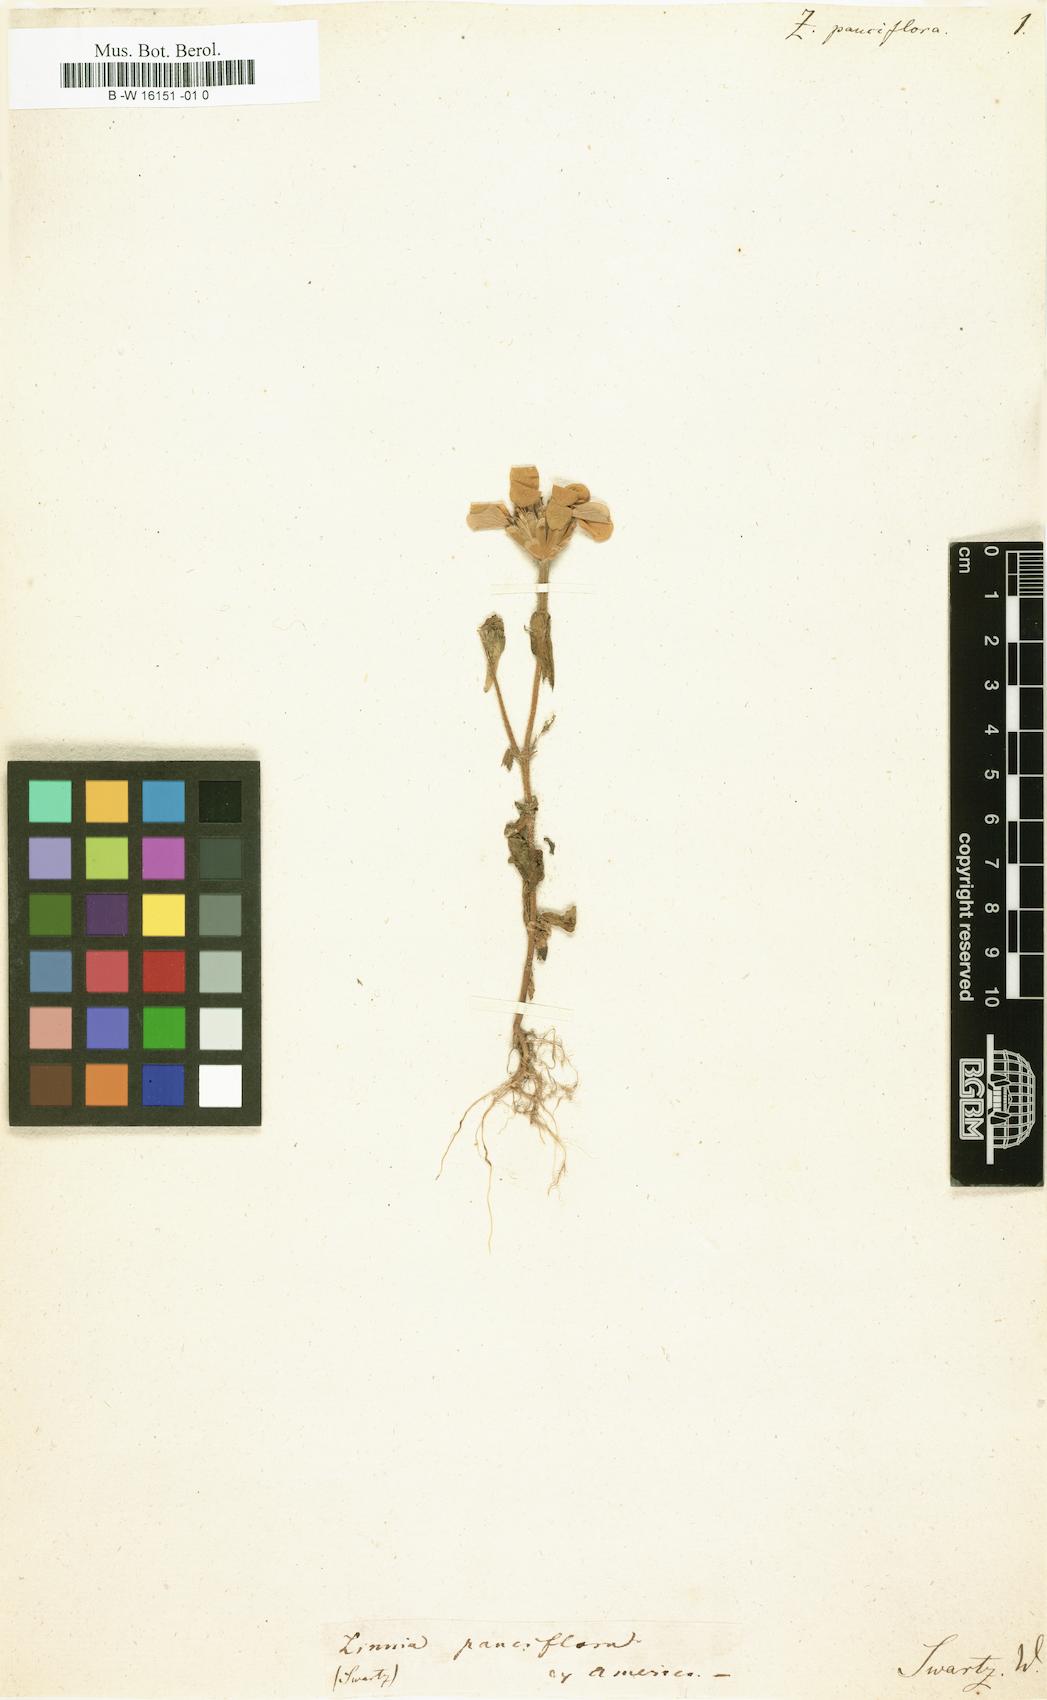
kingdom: Plantae
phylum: Tracheophyta
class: Magnoliopsida
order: Asterales
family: Asteraceae
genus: Zinnia
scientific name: Zinnia peruviana
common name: Peruvian zinnia
